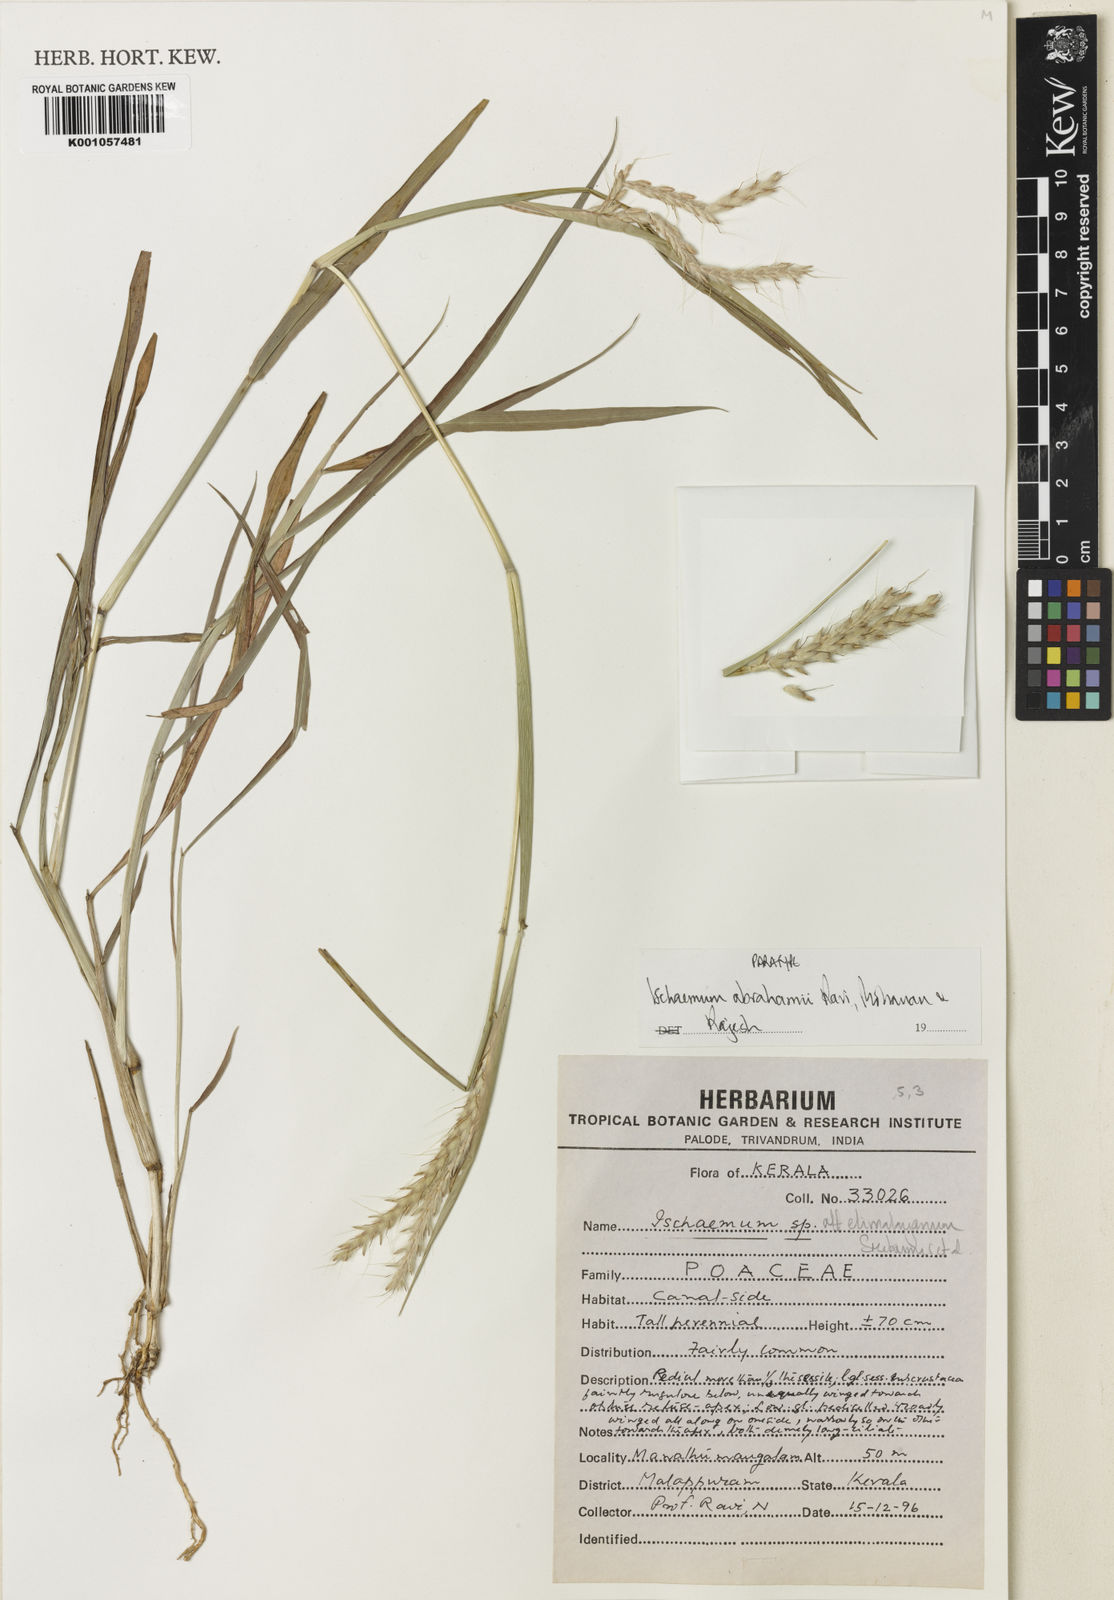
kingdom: Plantae
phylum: Tracheophyta
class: Liliopsida
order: Poales
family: Poaceae
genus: Ischaemum
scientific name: Ischaemum barbatum
